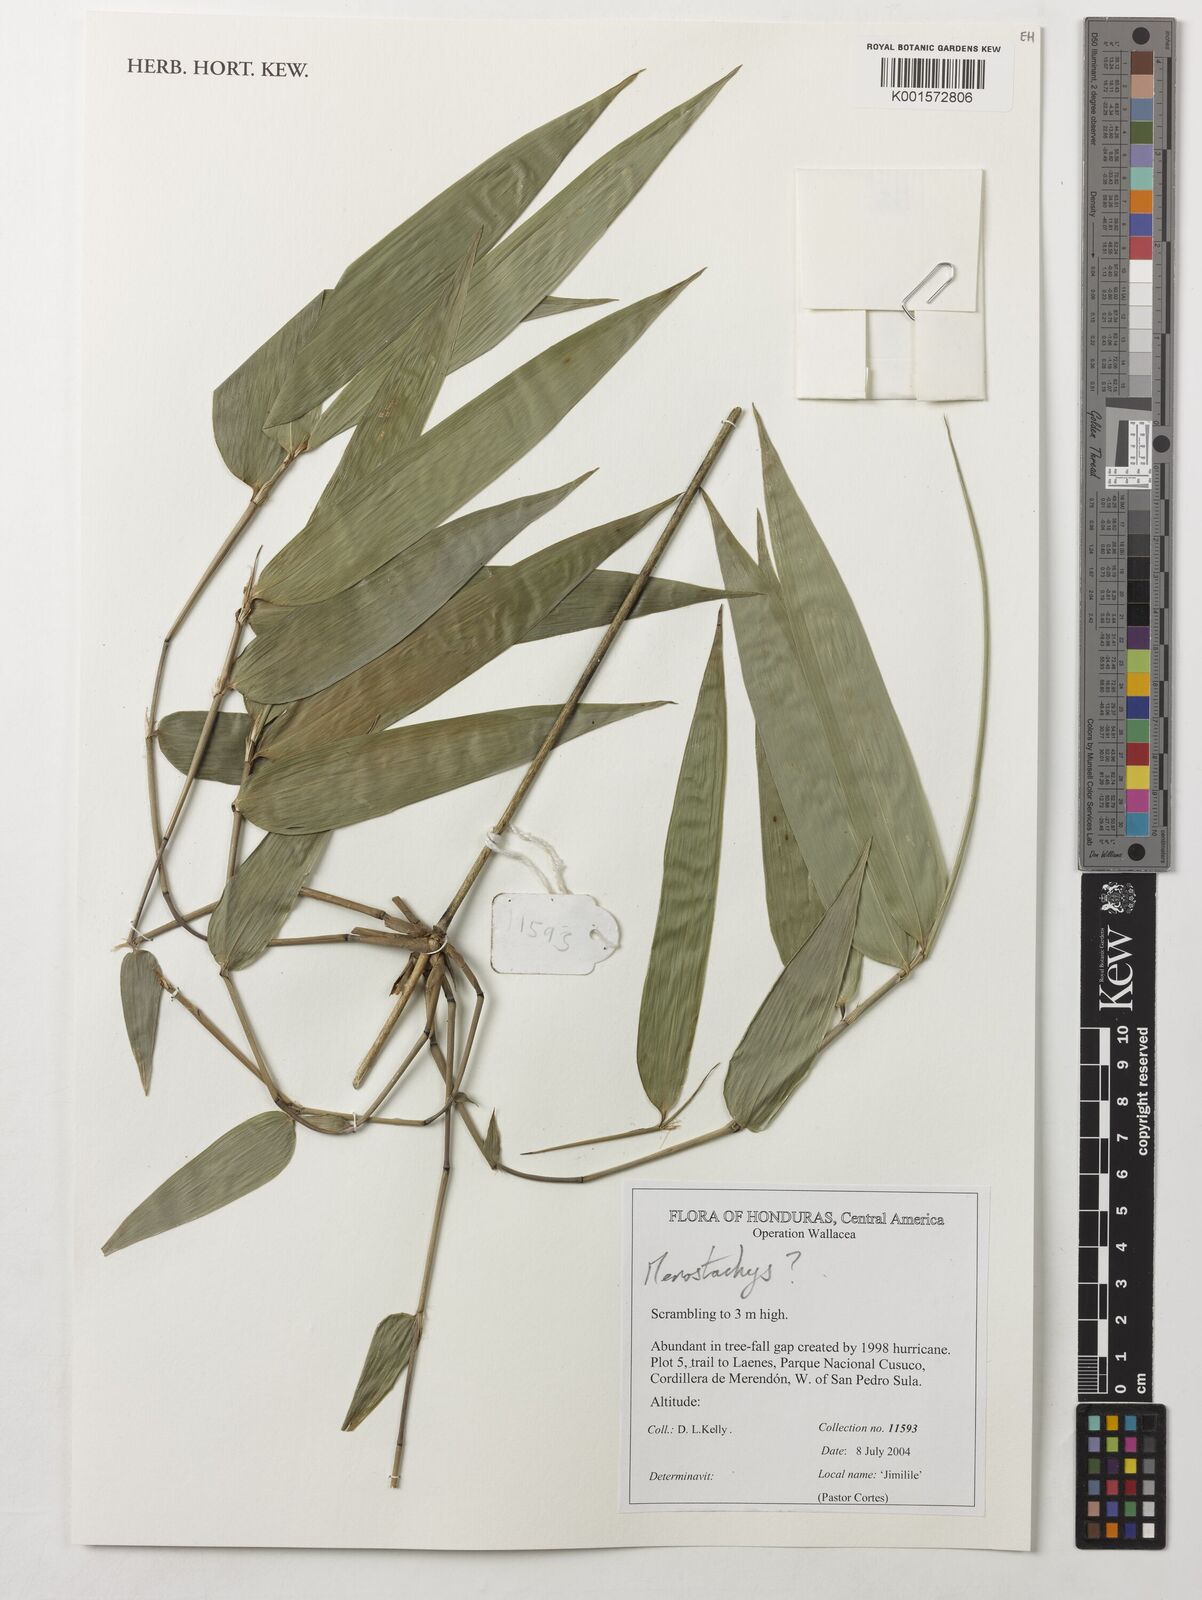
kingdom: Plantae
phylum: Tracheophyta
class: Liliopsida
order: Poales
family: Poaceae
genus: Merostachys
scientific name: Merostachys
